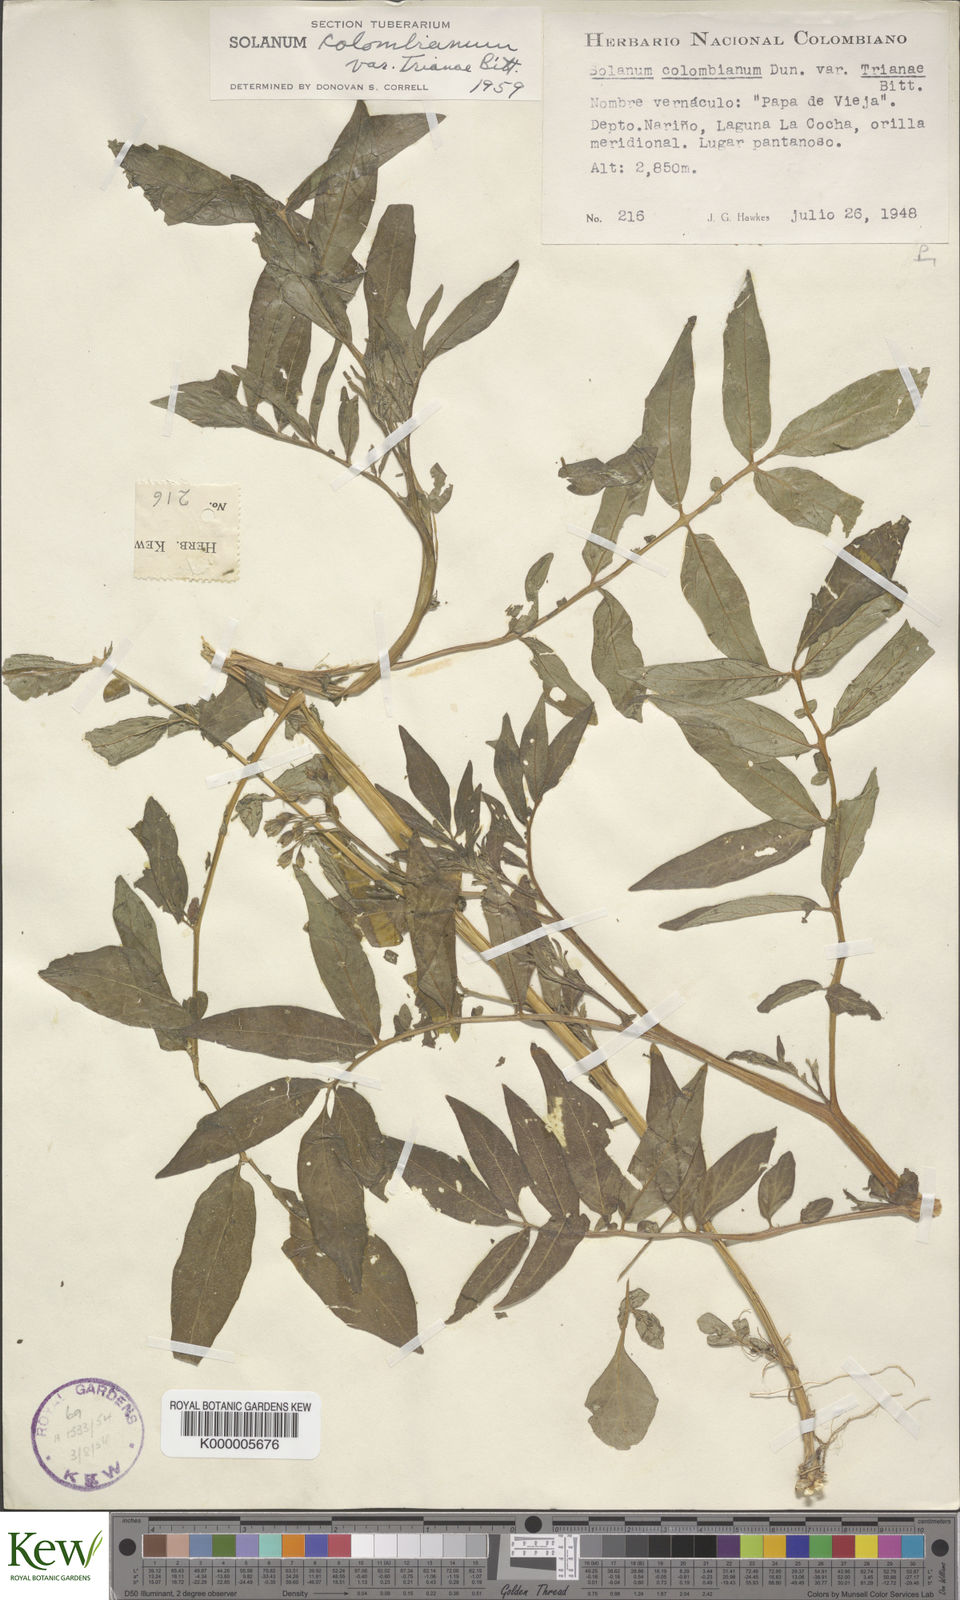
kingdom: Plantae
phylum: Tracheophyta
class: Magnoliopsida
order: Solanales
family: Solanaceae
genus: Solanum
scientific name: Solanum colombianum
